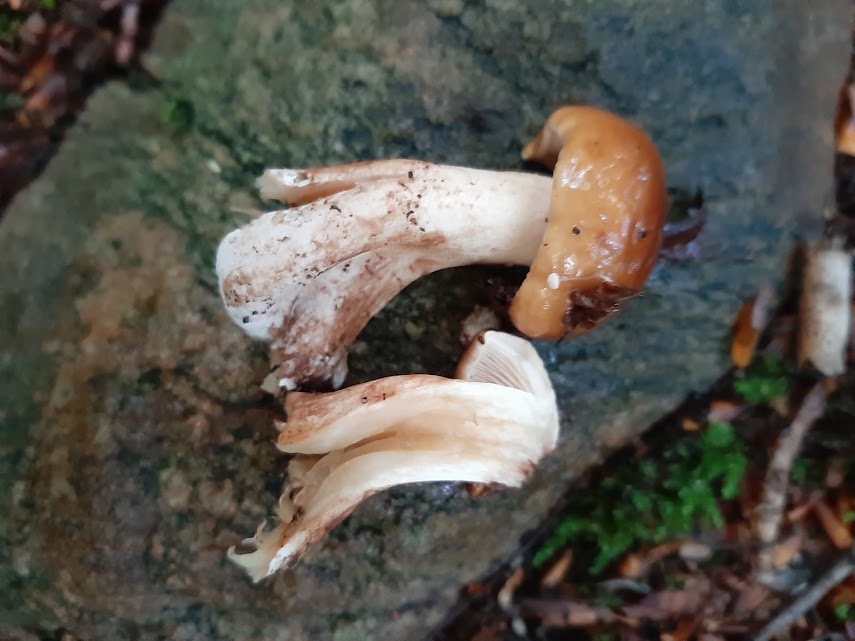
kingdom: Fungi
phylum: Basidiomycota
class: Agaricomycetes
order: Agaricales
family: Tricholomataceae
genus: Tricholoma
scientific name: Tricholoma ustale
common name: sveden ridderhat
